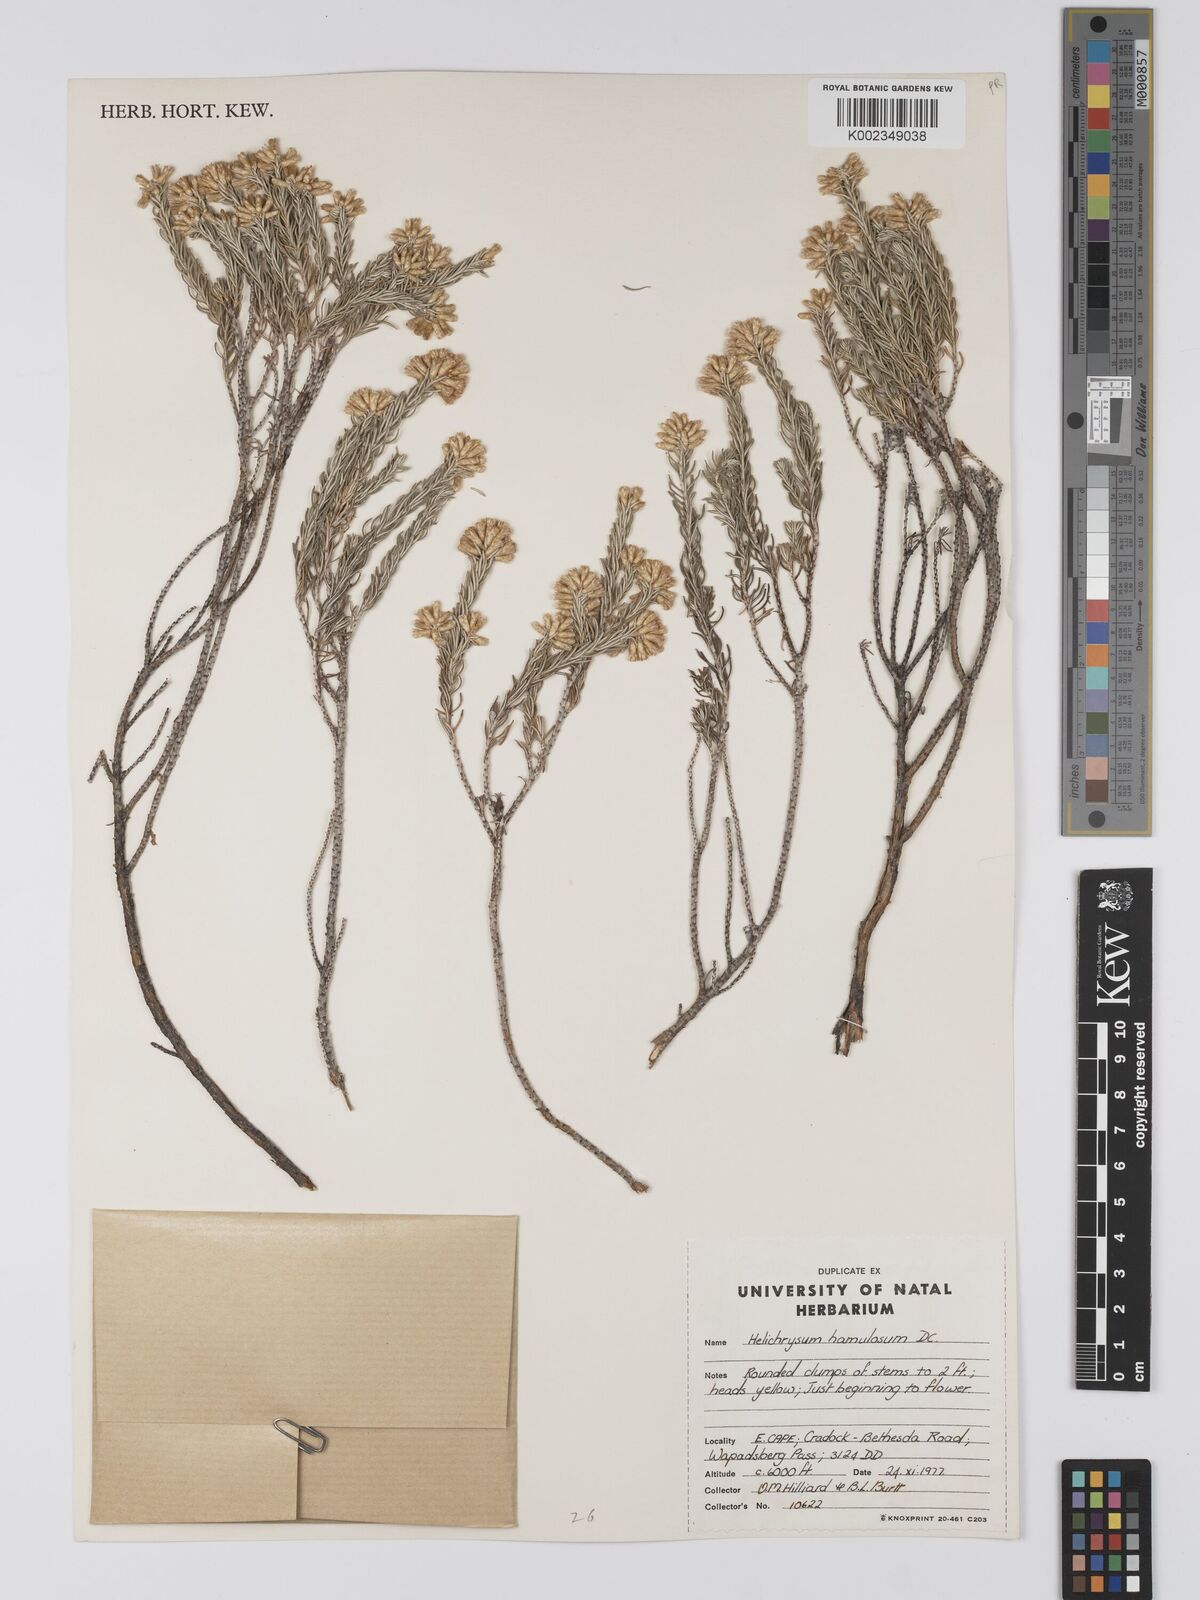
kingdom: Plantae
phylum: Tracheophyta
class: Magnoliopsida
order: Asterales
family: Asteraceae
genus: Helichrysum
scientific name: Helichrysum hamulosum
